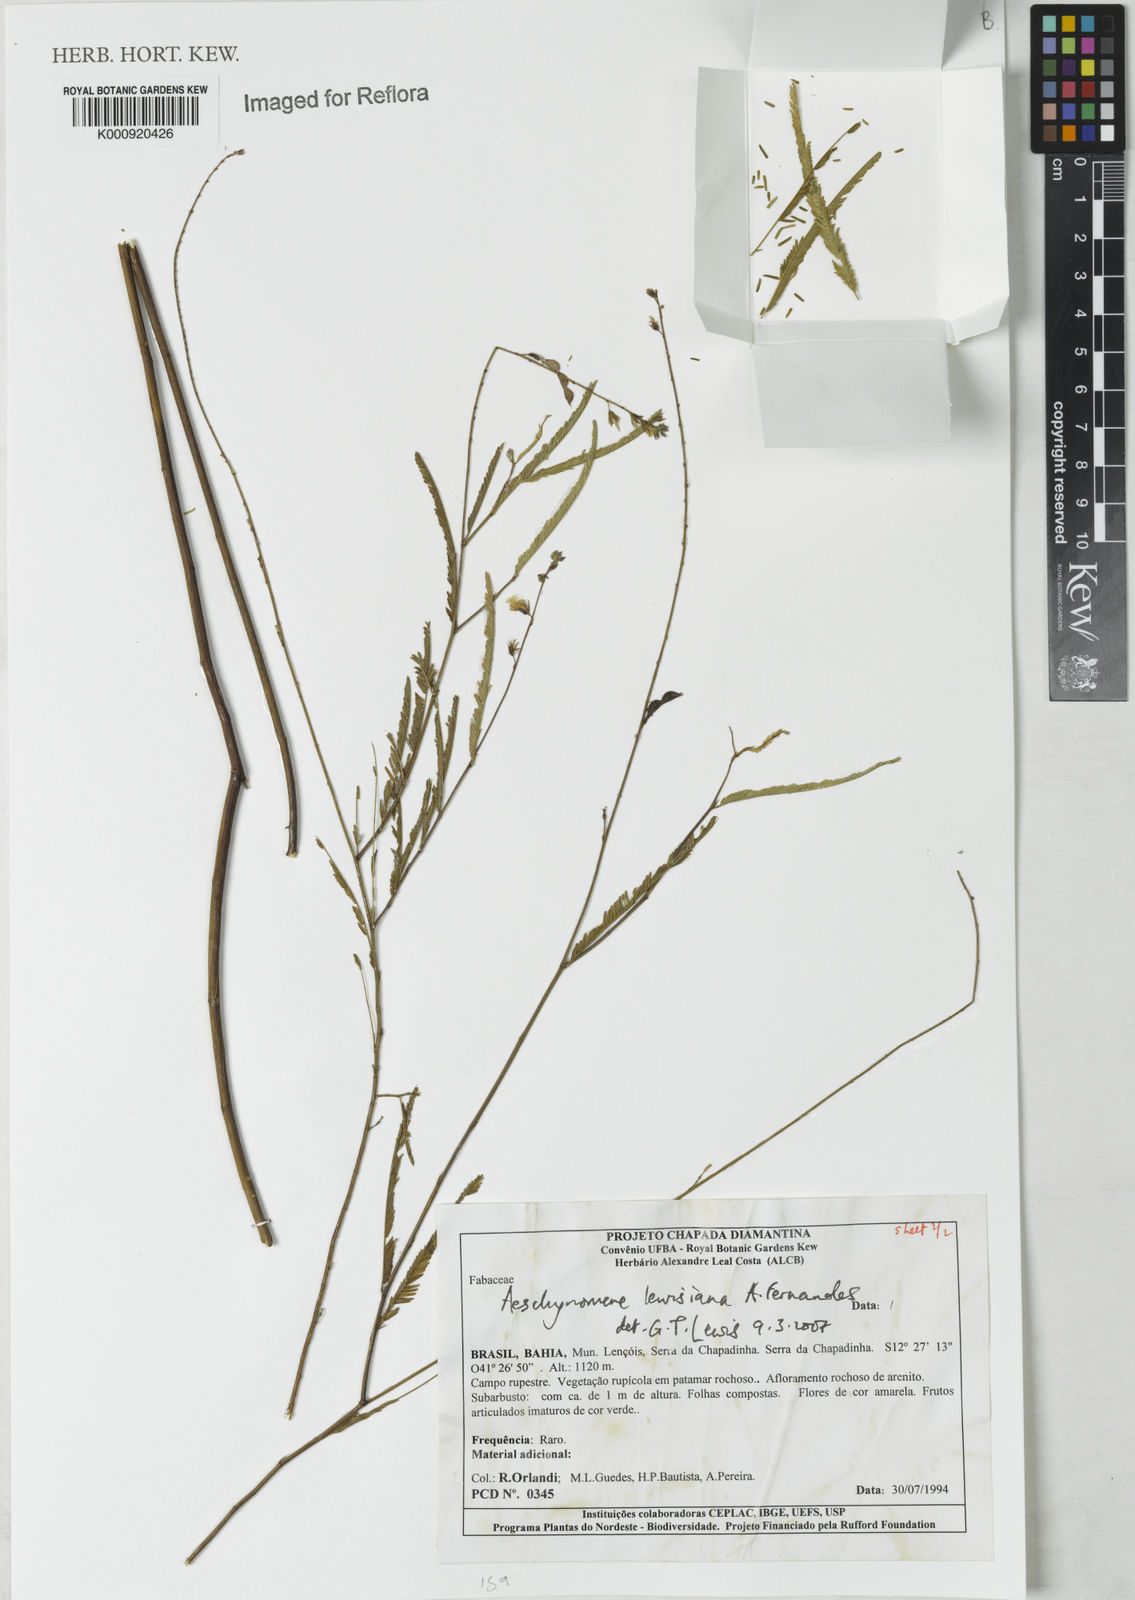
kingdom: Plantae
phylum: Tracheophyta
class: Magnoliopsida
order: Fabales
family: Fabaceae
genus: Ctenodon
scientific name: Ctenodon lewisianus
